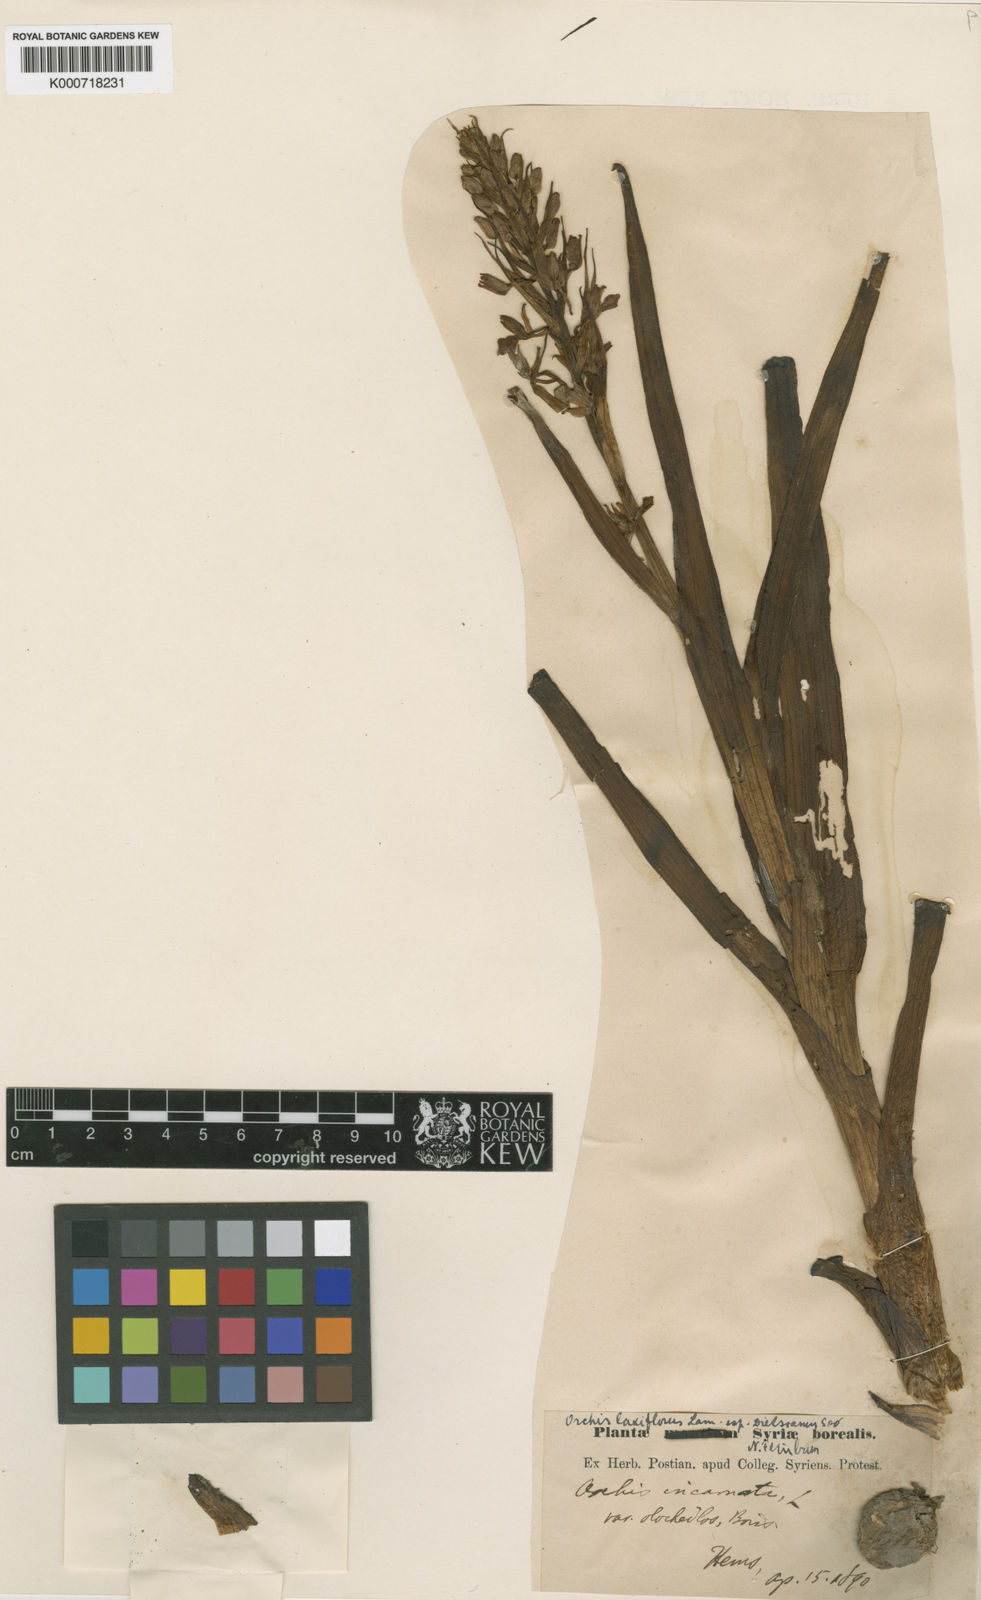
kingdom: Plantae
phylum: Tracheophyta
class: Liliopsida
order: Asparagales
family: Orchidaceae
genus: Anacamptis
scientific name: Anacamptis palustris
